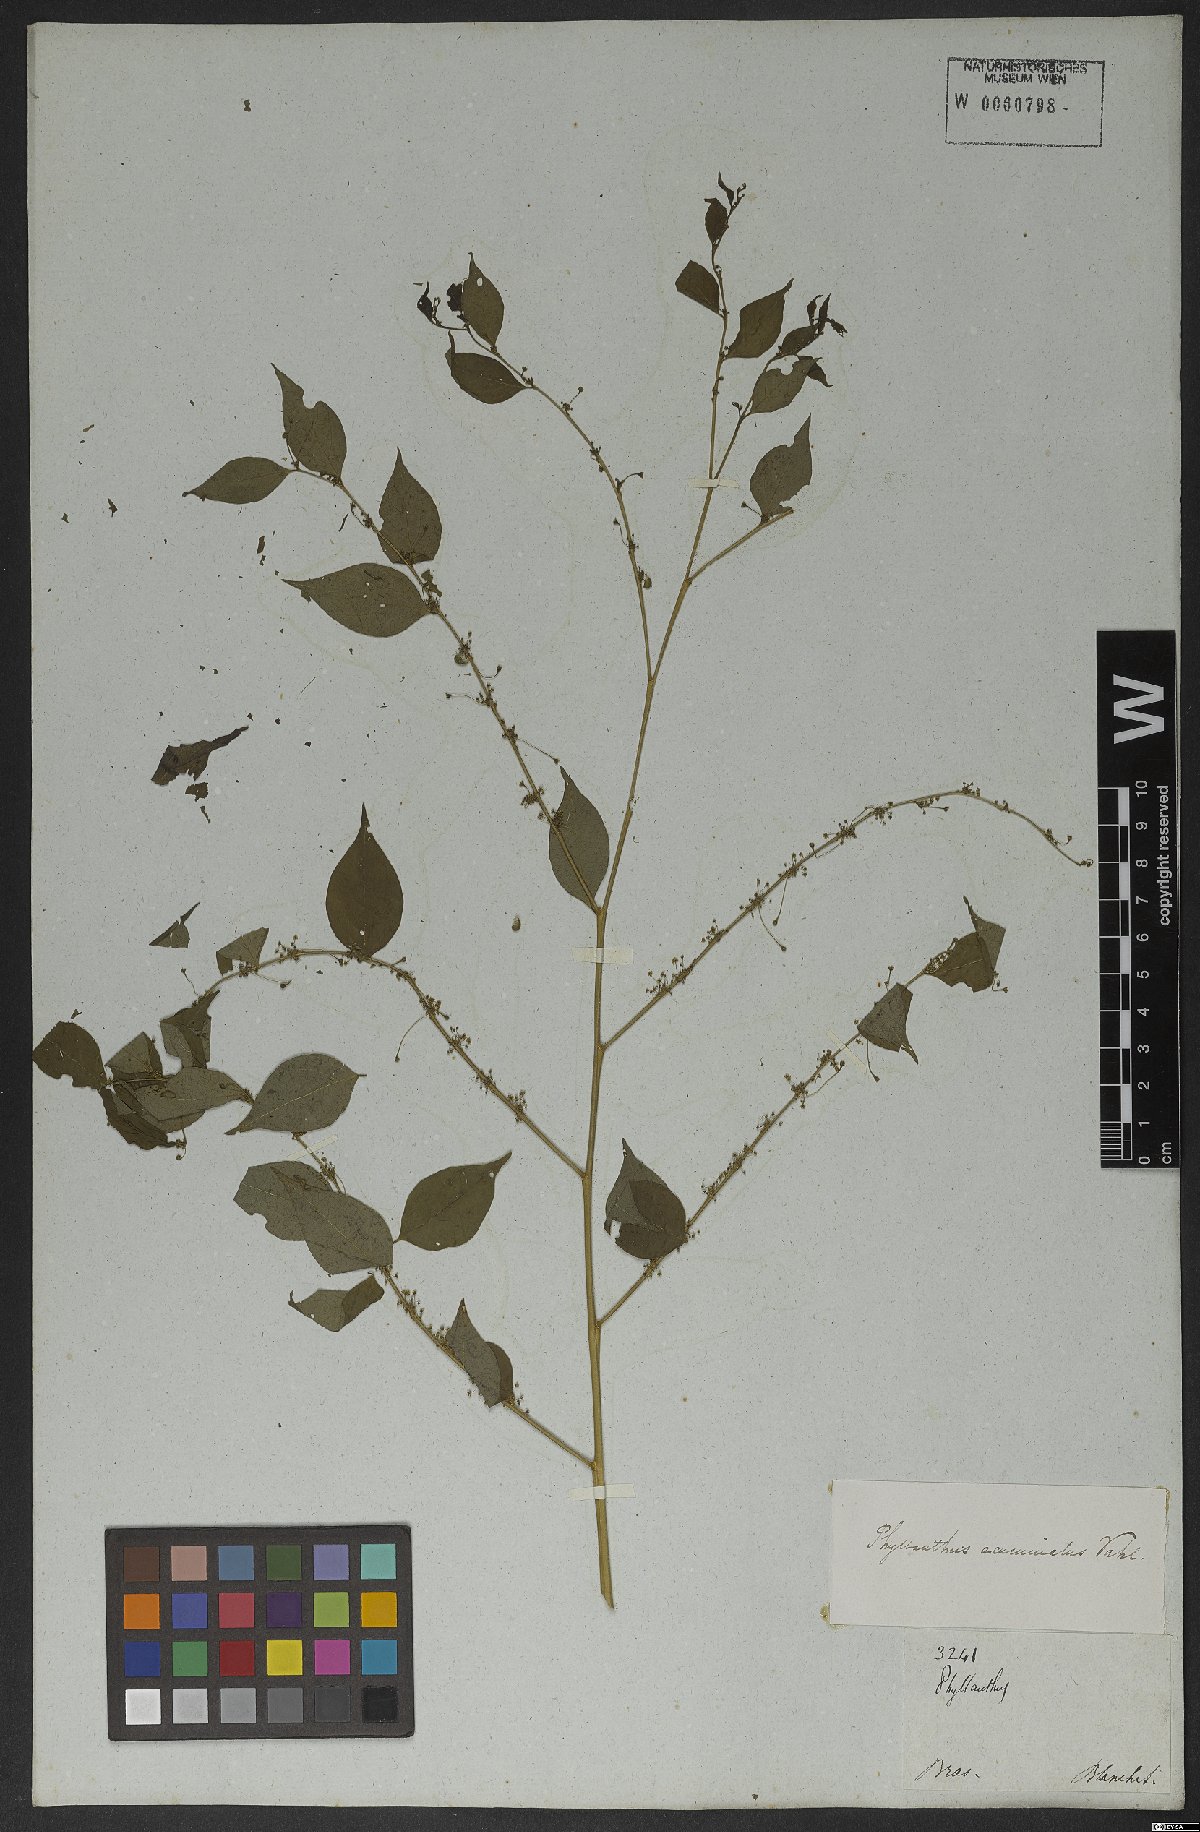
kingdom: Plantae
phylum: Tracheophyta
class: Magnoliopsida
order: Malpighiales
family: Phyllanthaceae
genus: Phyllanthus
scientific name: Phyllanthus acuminatus
